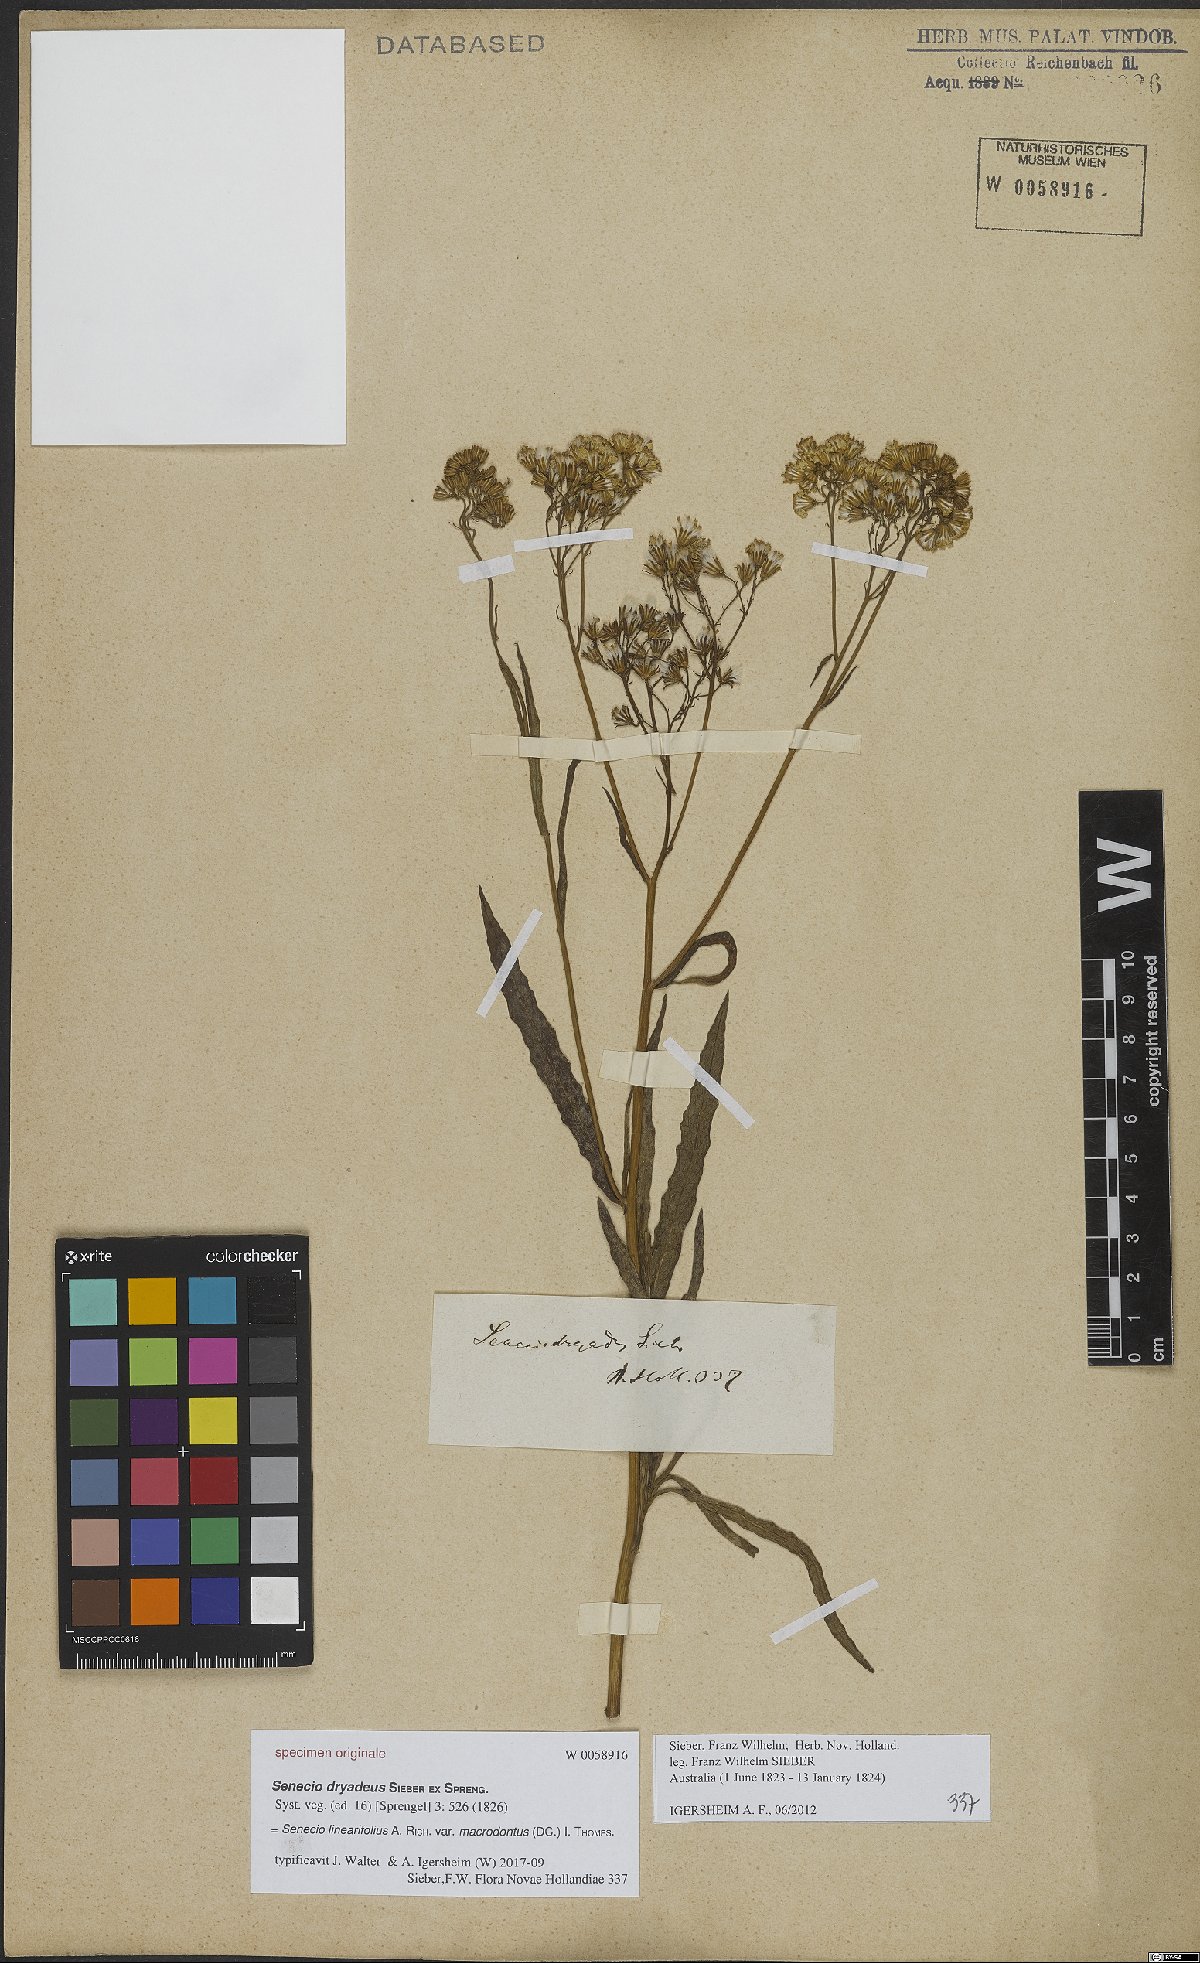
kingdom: Plantae
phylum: Tracheophyta
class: Magnoliopsida
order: Asterales
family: Asteraceae
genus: Senecio
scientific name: Senecio linearifolius
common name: Fireweed groundsel
